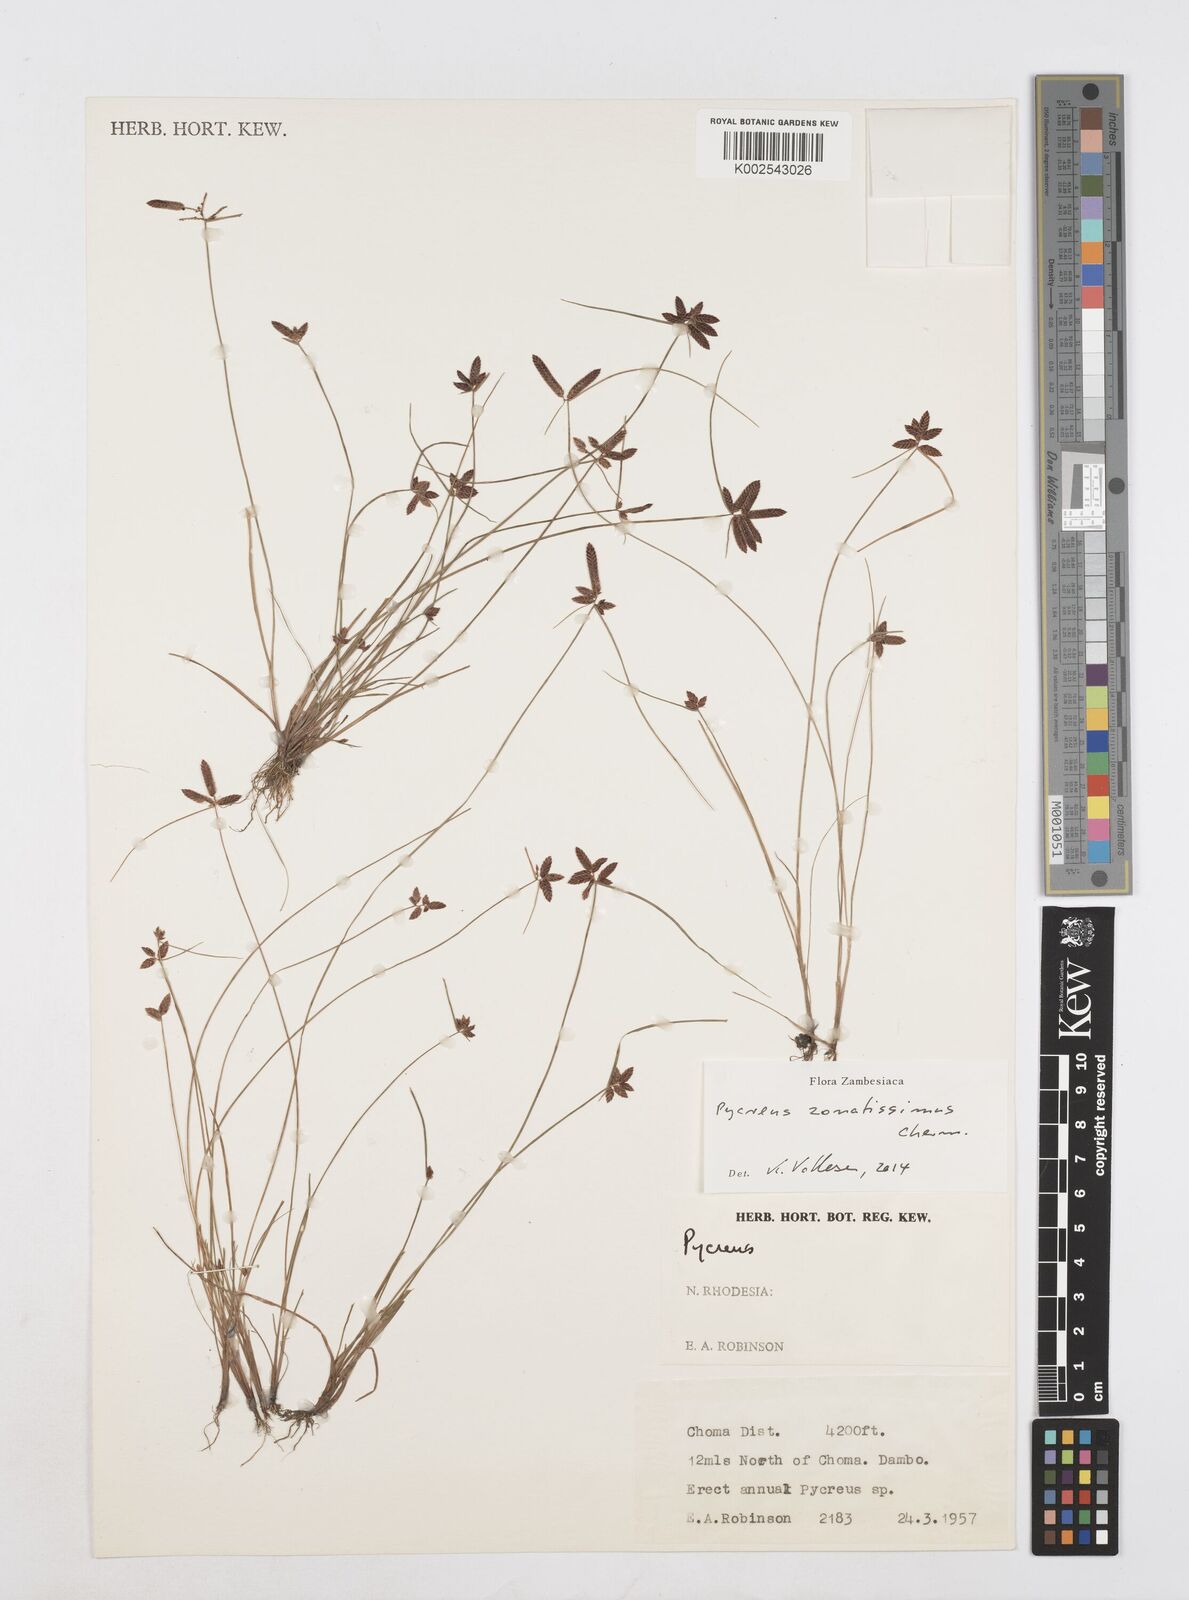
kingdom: Plantae
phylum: Tracheophyta
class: Liliopsida
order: Poales
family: Cyperaceae
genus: Cyperus
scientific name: Cyperus zonatissimus
